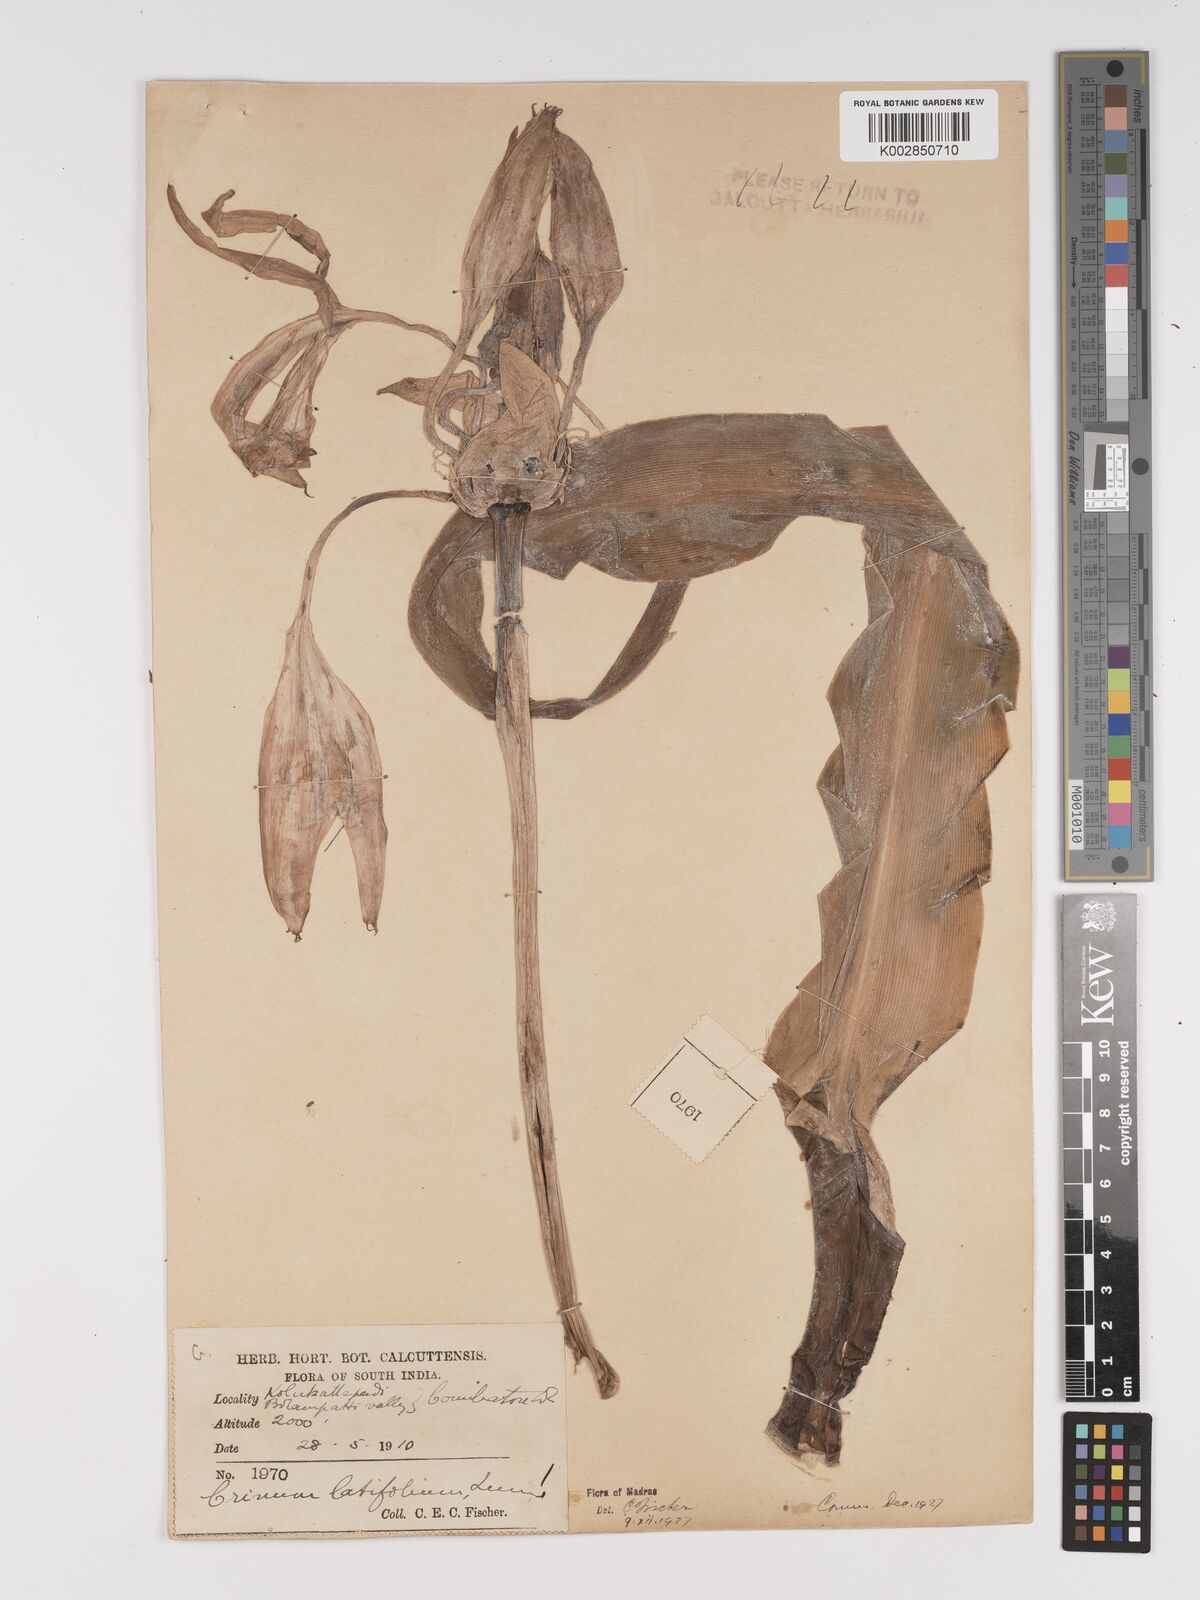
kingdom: Plantae
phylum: Tracheophyta
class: Liliopsida
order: Asparagales
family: Amaryllidaceae
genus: Crinum
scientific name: Crinum latifolium
